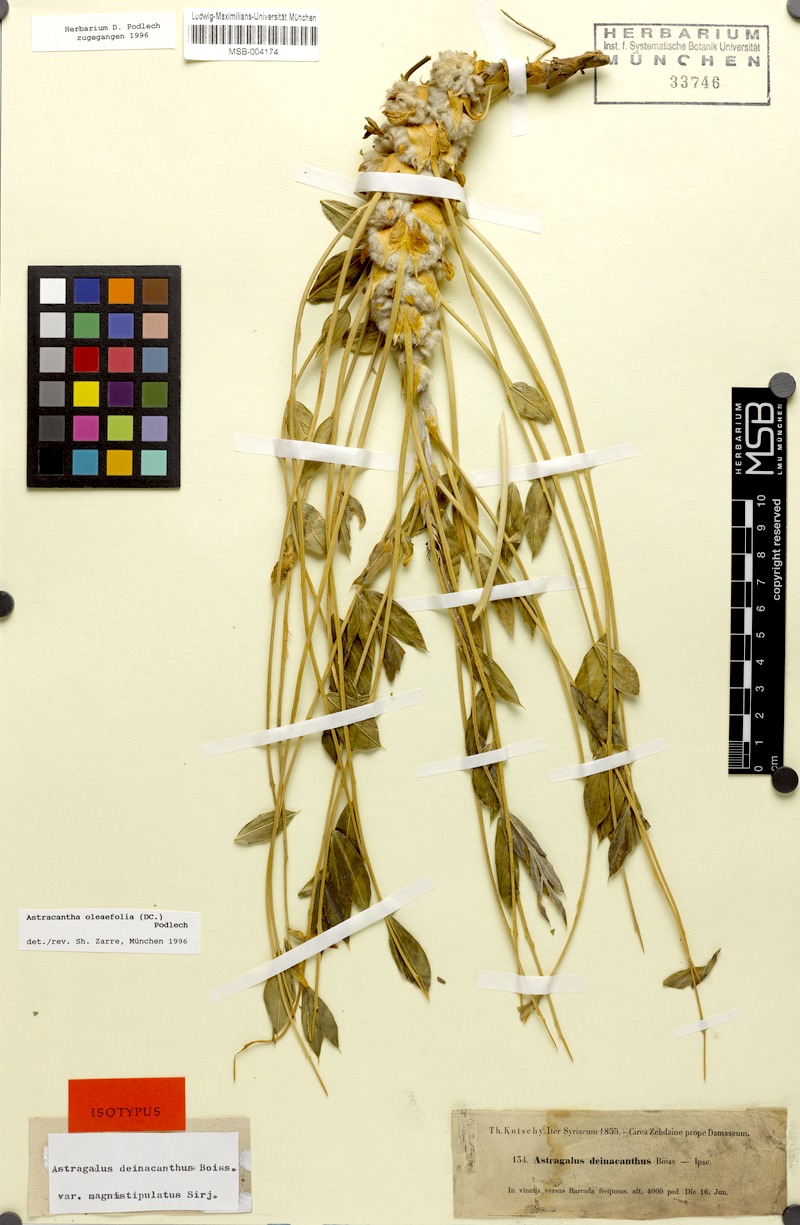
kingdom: Plantae
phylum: Tracheophyta
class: Magnoliopsida
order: Fabales
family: Fabaceae
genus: Astragalus
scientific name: Astragalus oleifolius
